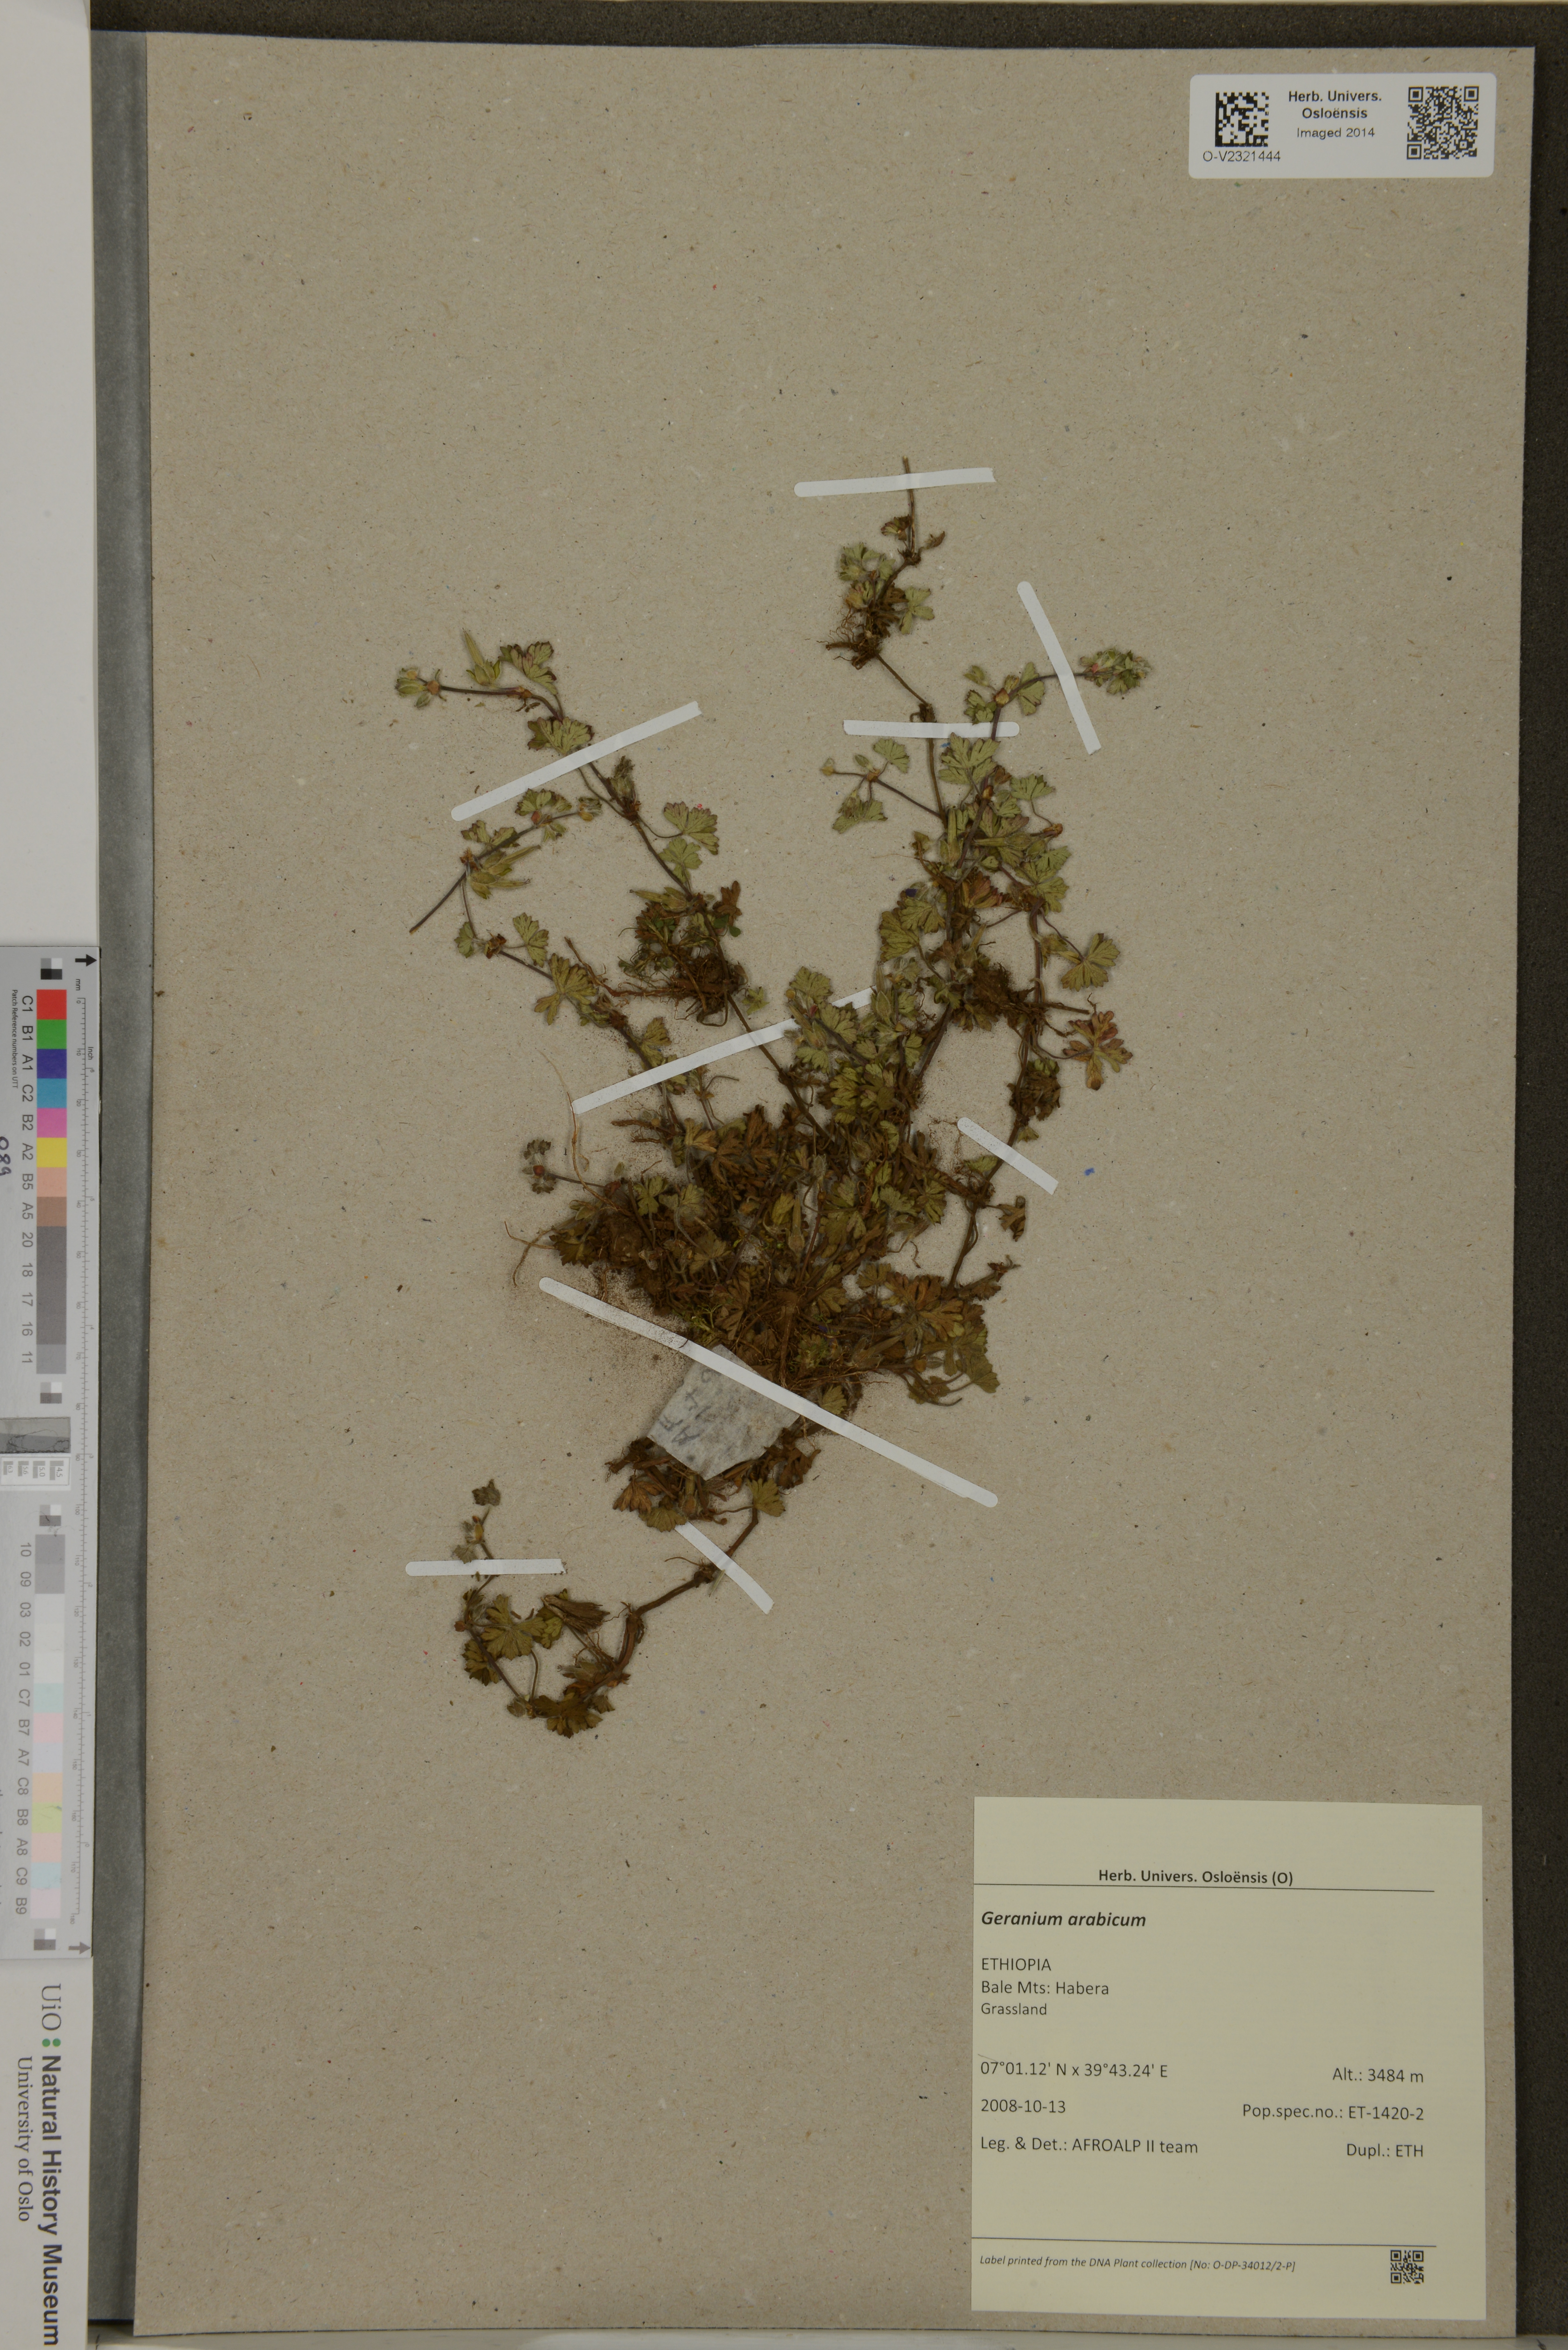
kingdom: Plantae
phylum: Tracheophyta
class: Magnoliopsida
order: Geraniales
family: Geraniaceae
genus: Geranium
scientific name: Geranium arabicum
